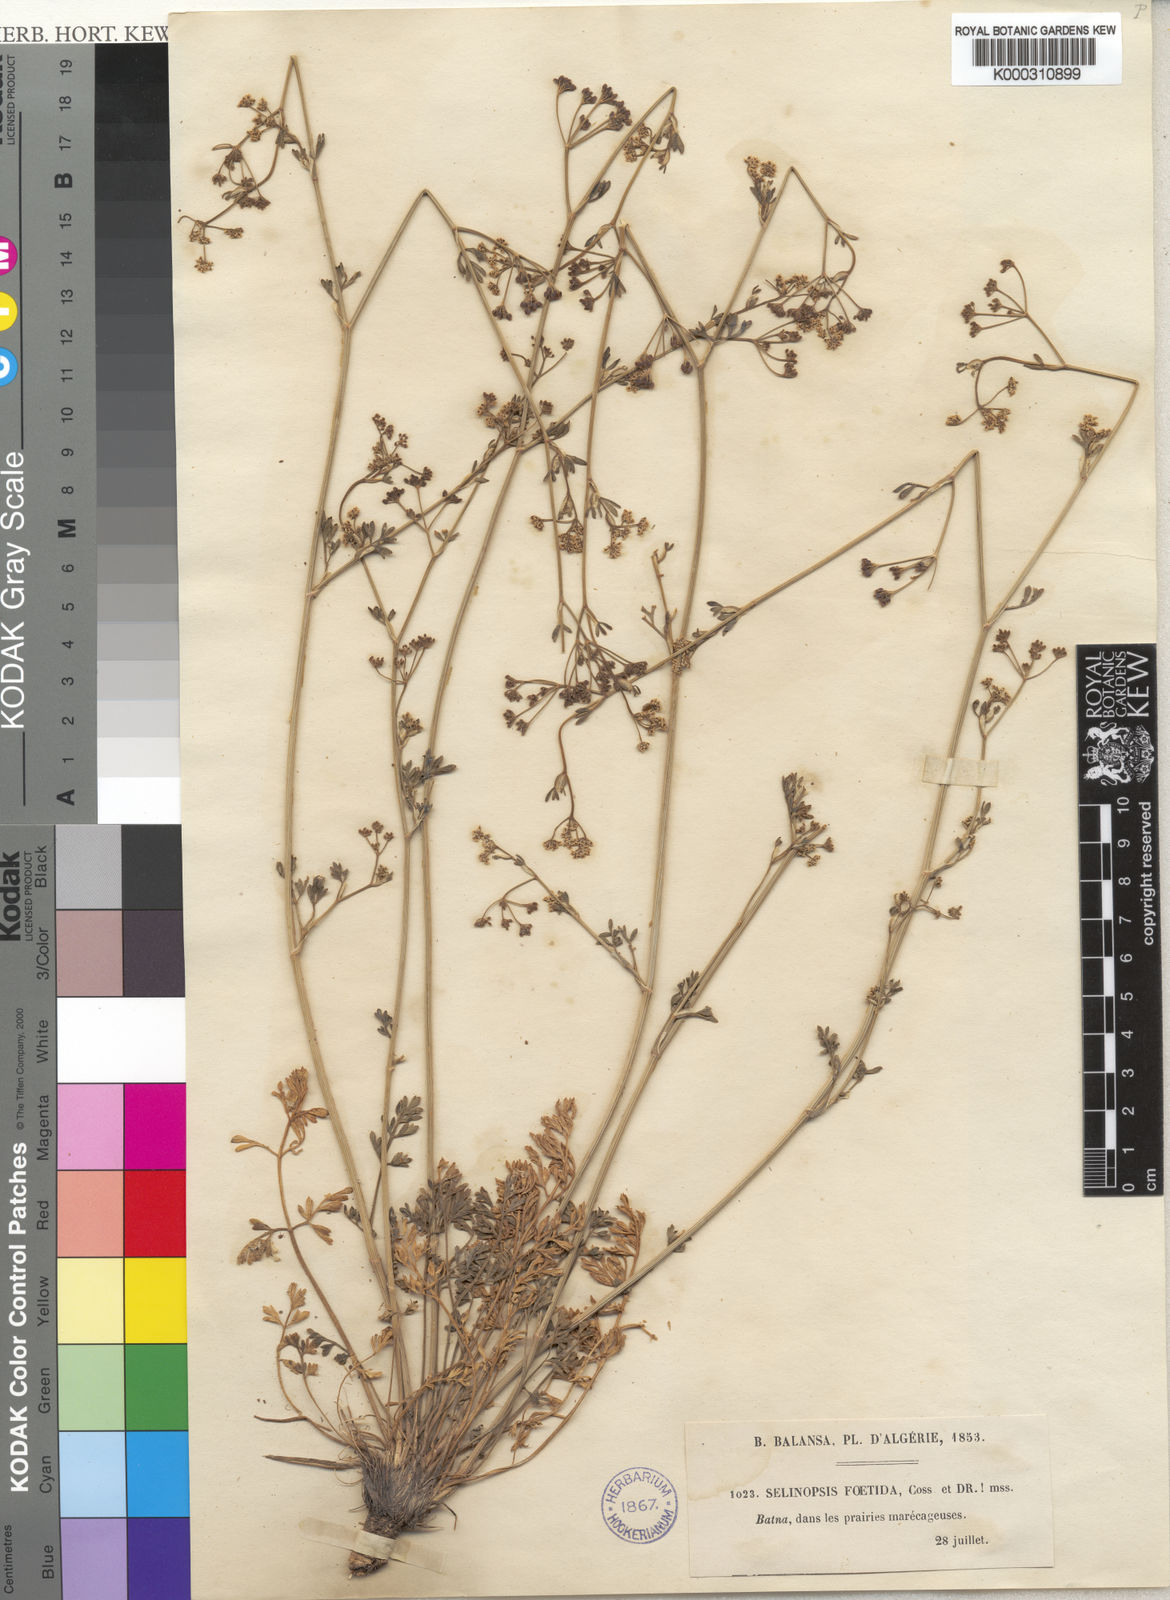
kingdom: Plantae
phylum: Tracheophyta
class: Magnoliopsida
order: Apiales
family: Apiaceae
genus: Carum
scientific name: Carum
